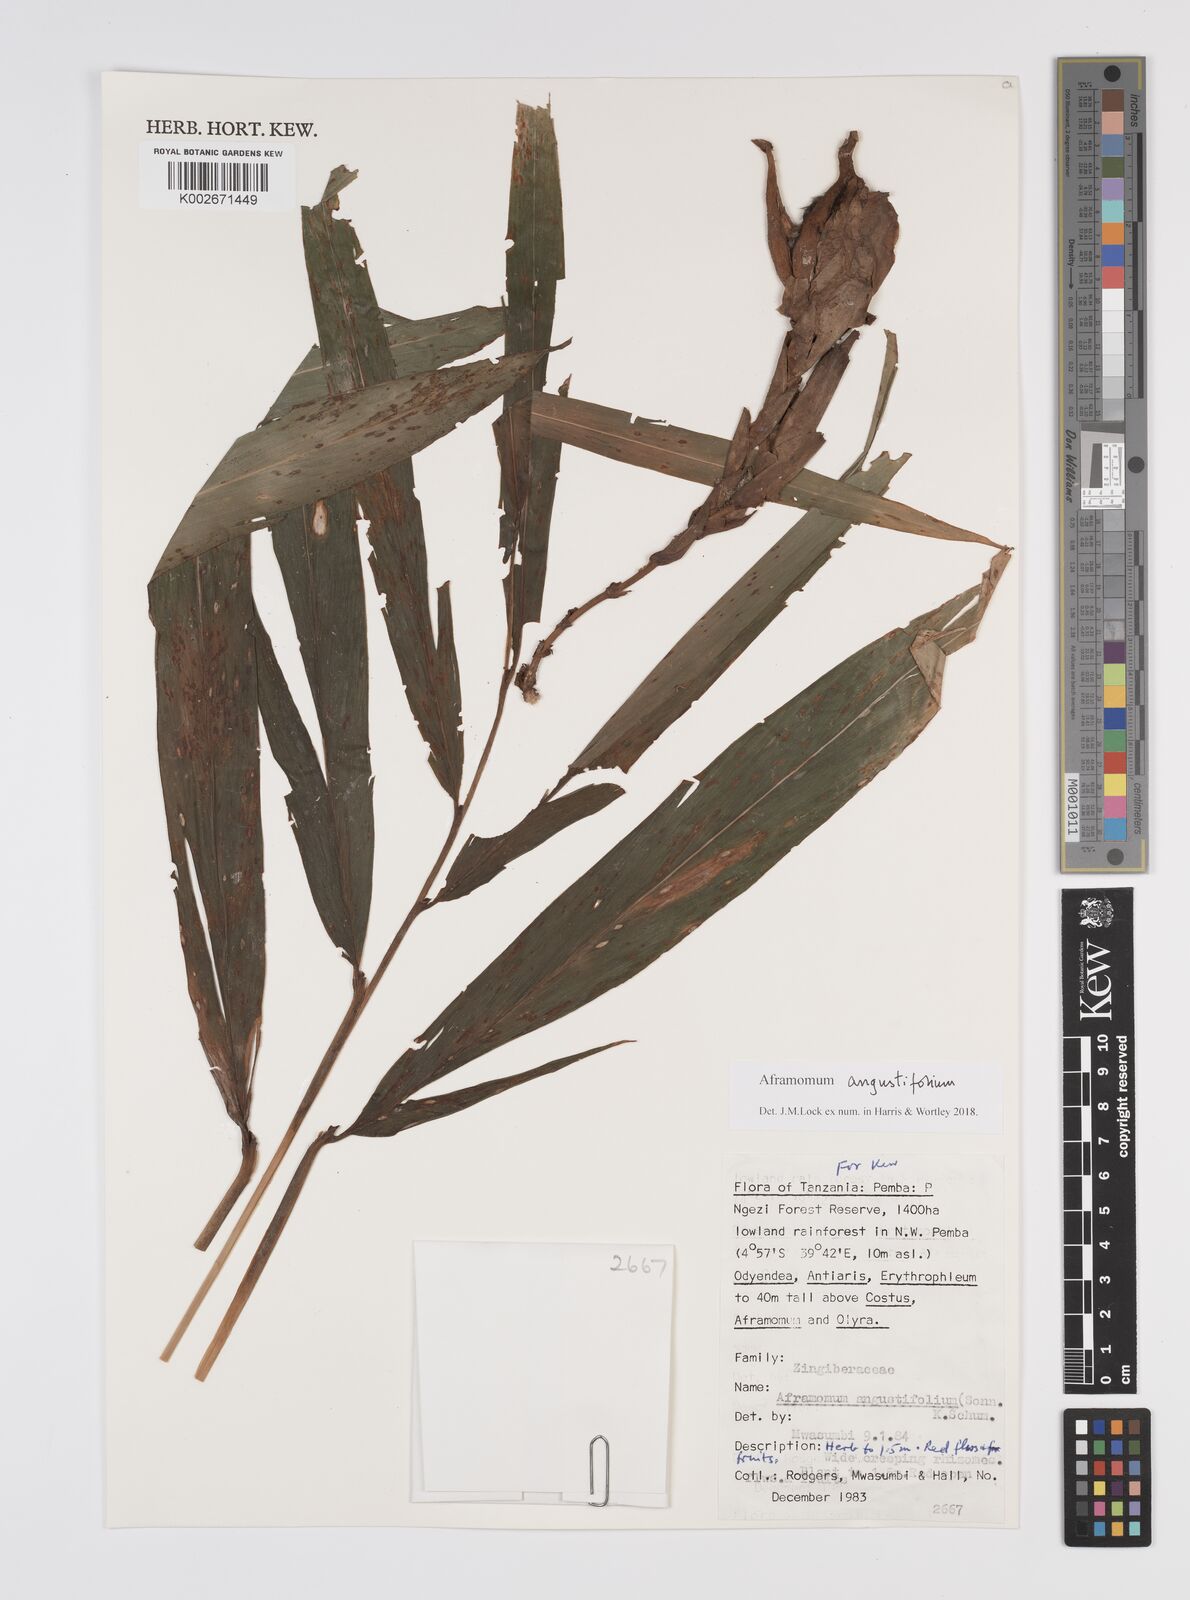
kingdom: Plantae
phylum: Tracheophyta
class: Liliopsida
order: Zingiberales
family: Zingiberaceae
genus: Aframomum
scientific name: Aframomum angustifolium
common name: Guinea grains
